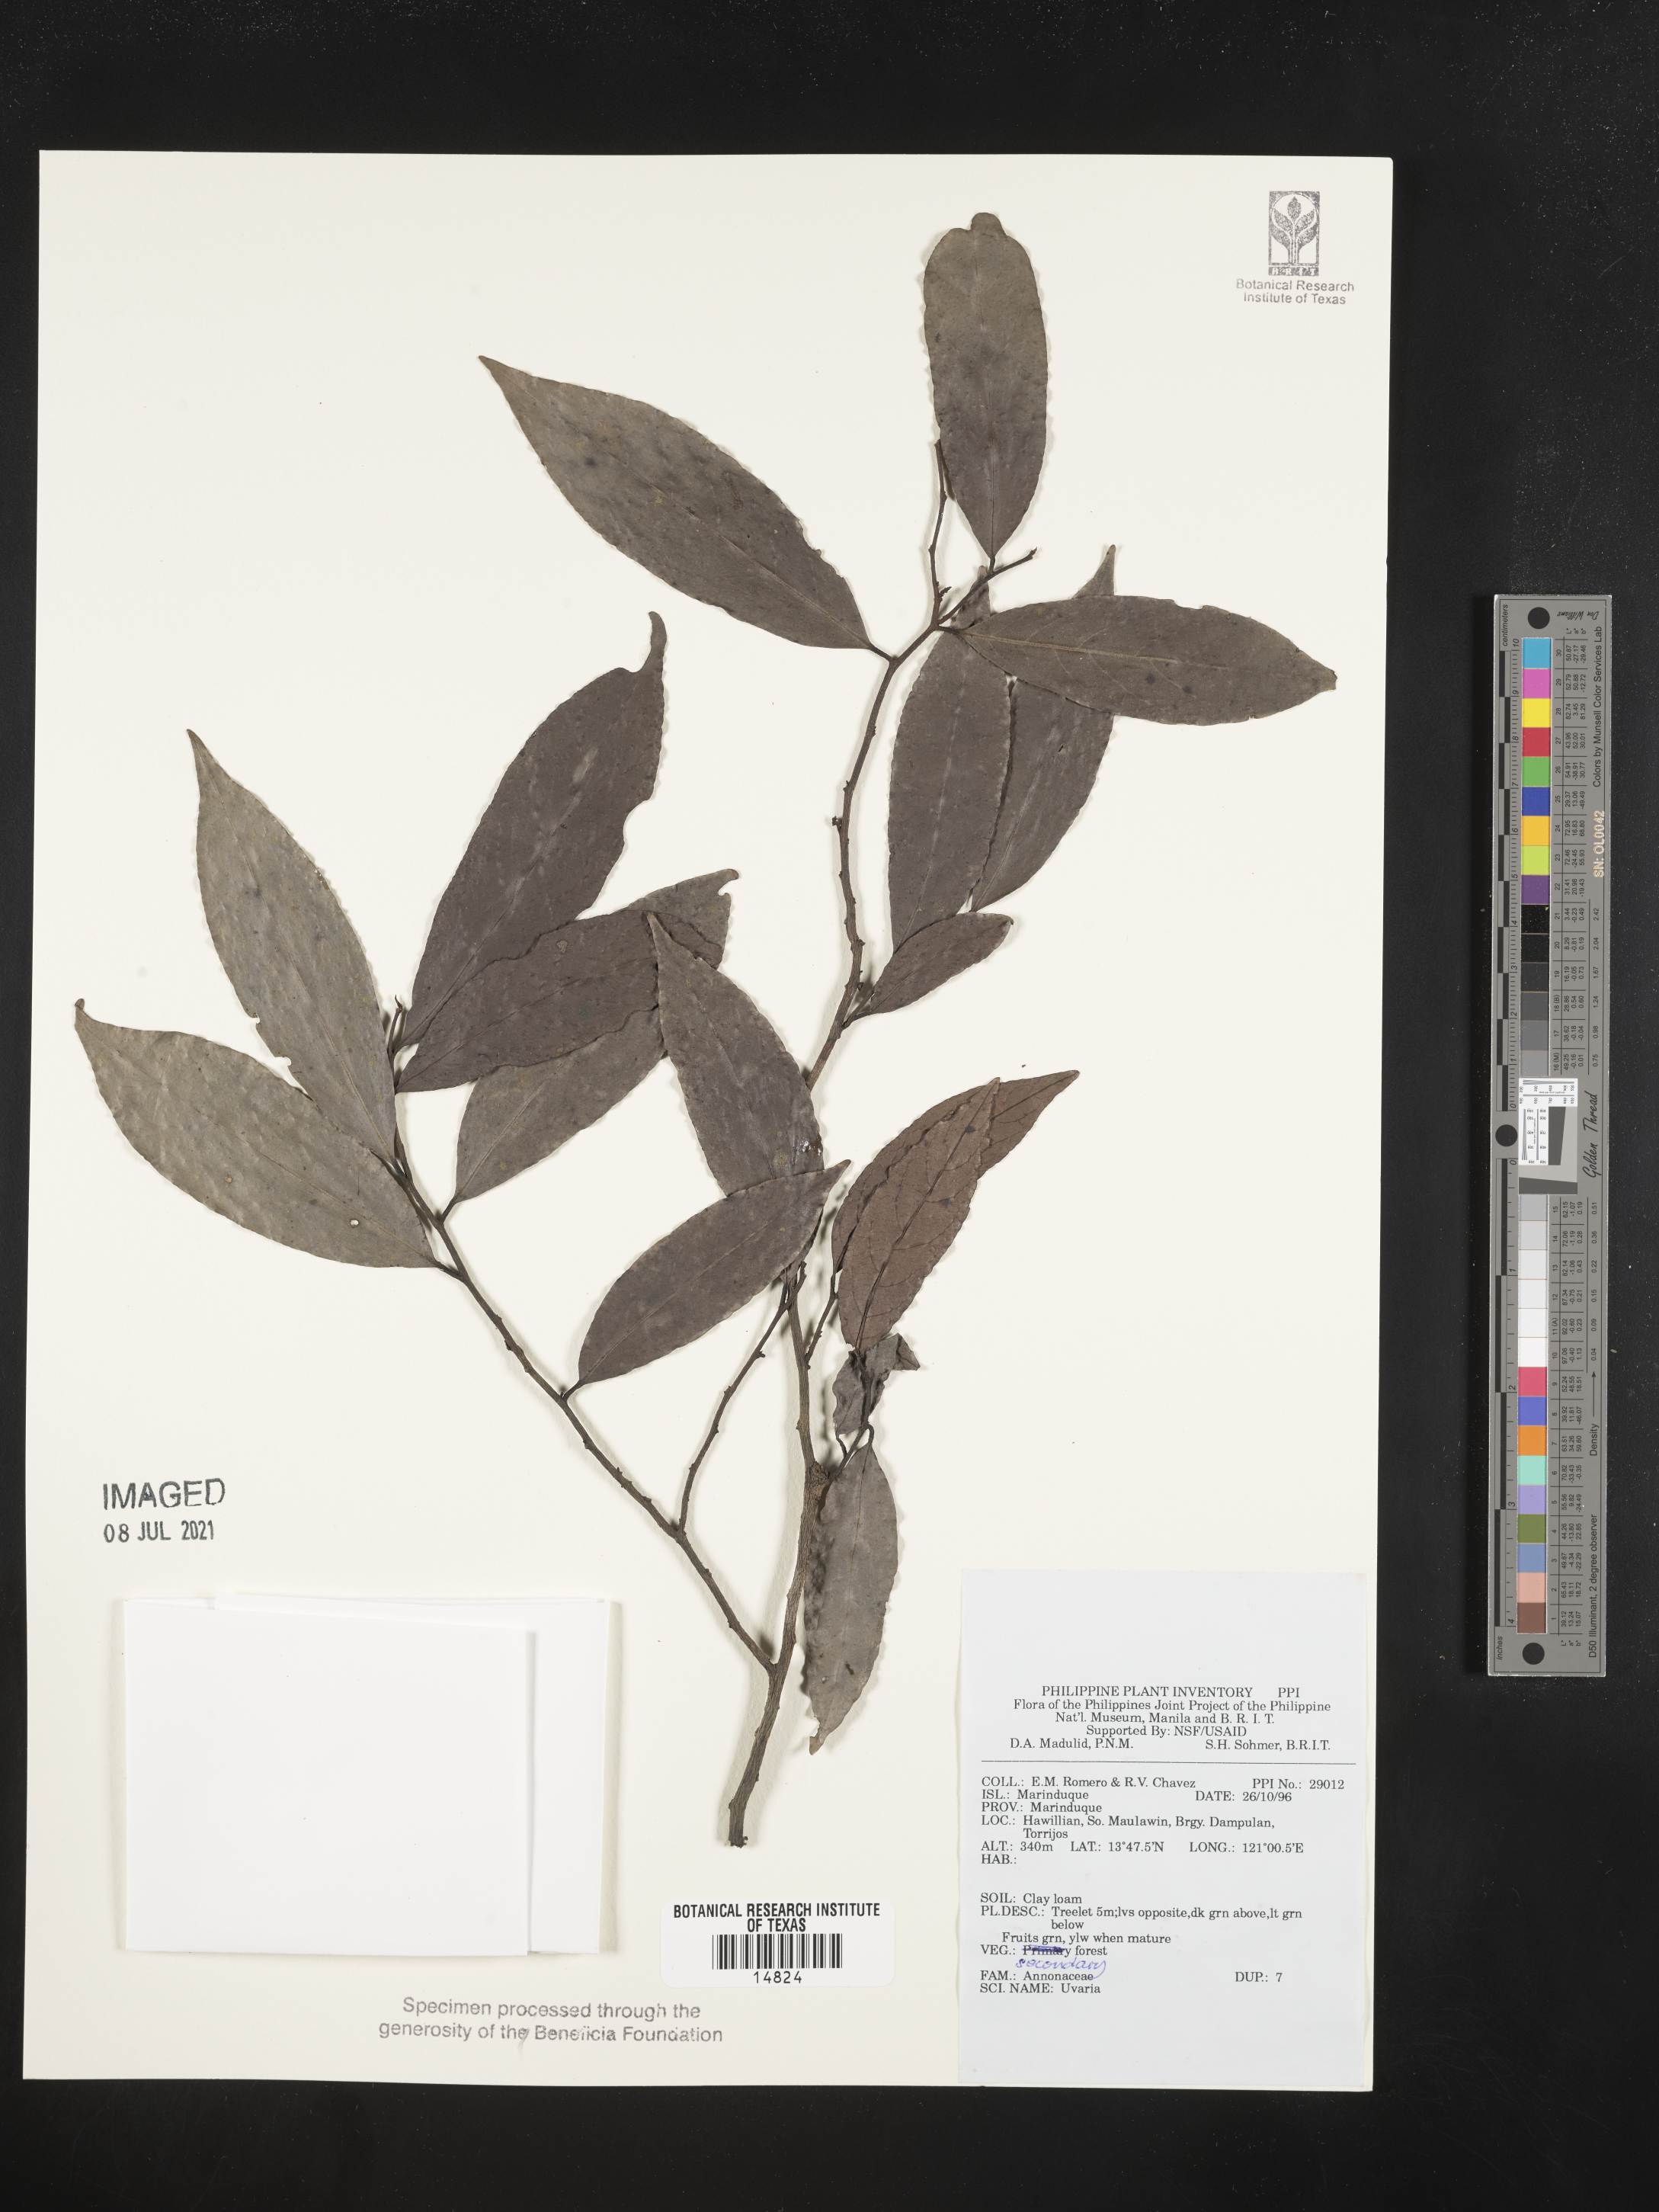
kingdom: Plantae
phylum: Tracheophyta
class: Magnoliopsida
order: Magnoliales
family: Annonaceae
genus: Uvaria
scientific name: Uvaria
